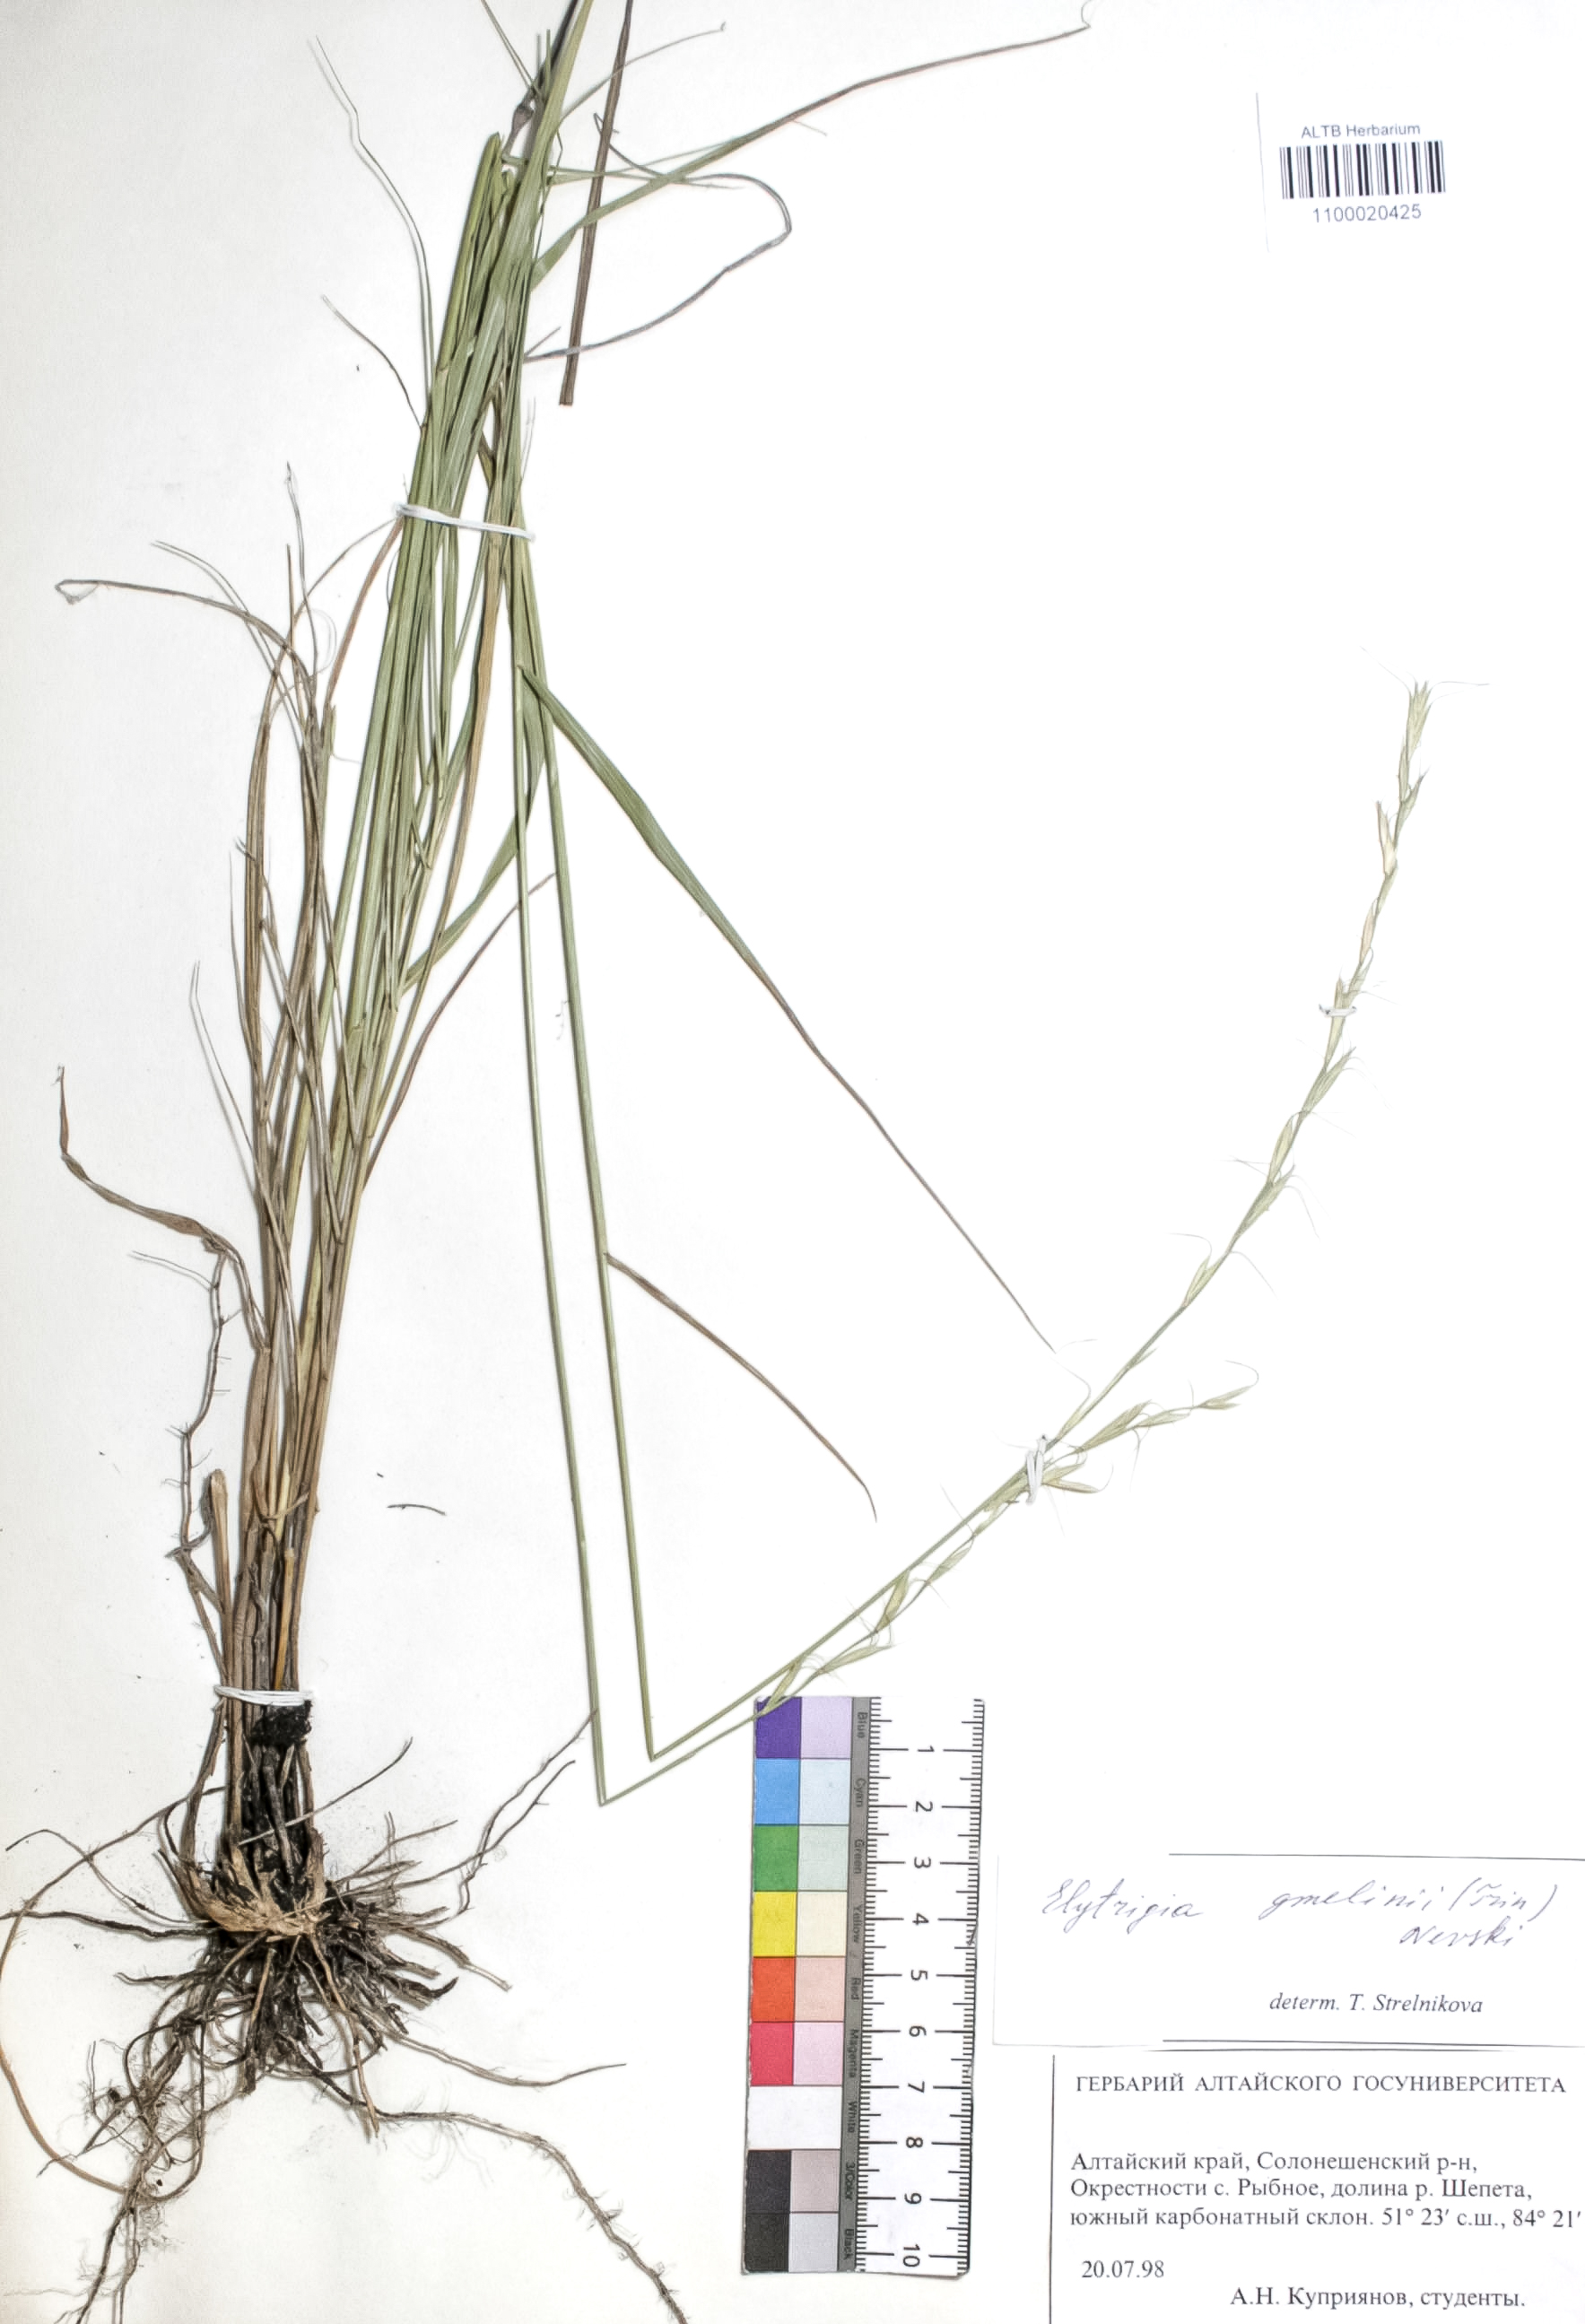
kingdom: Plantae
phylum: Tracheophyta
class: Liliopsida
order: Poales
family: Poaceae
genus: Pseudoroegneria
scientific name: Pseudoroegneria reflexiaristata
